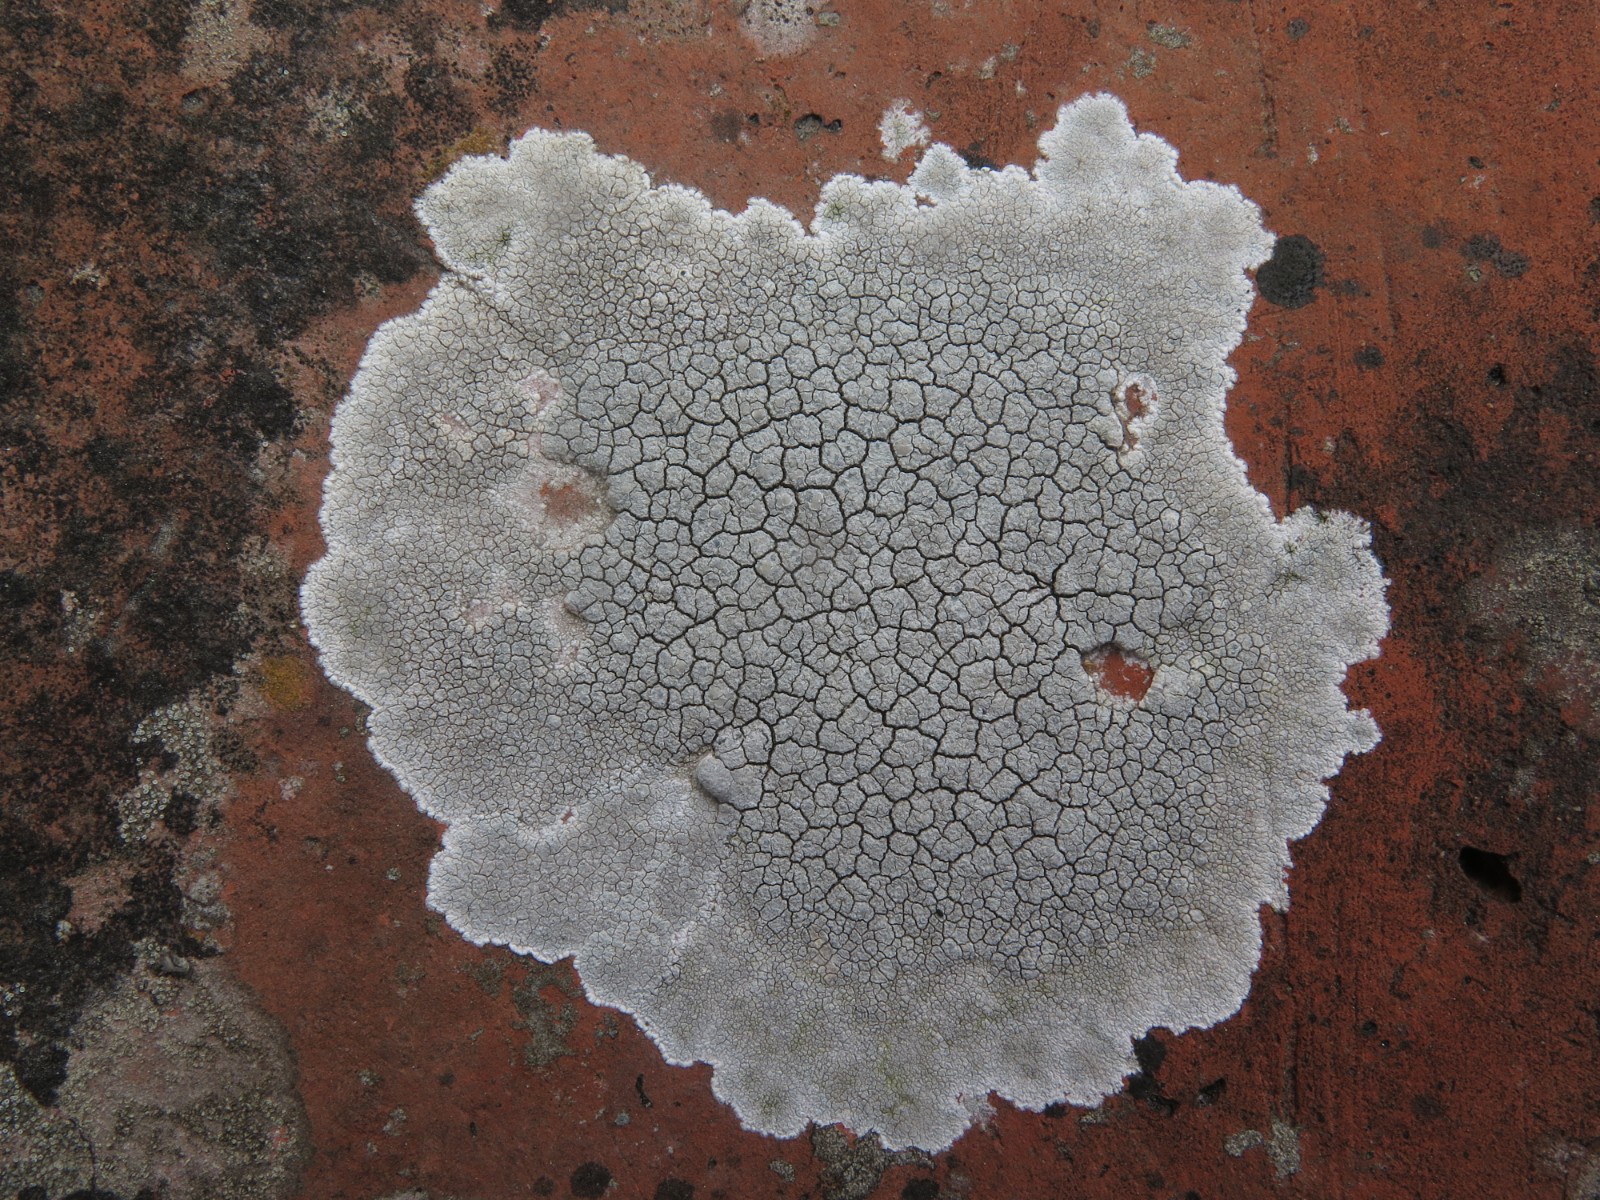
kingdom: Fungi
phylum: Ascomycota
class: Lecanoromycetes
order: Lecanorales
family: Lecanoraceae
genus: Glaucomaria
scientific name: Glaucomaria rupicola
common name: stengærde-kantskivelav
